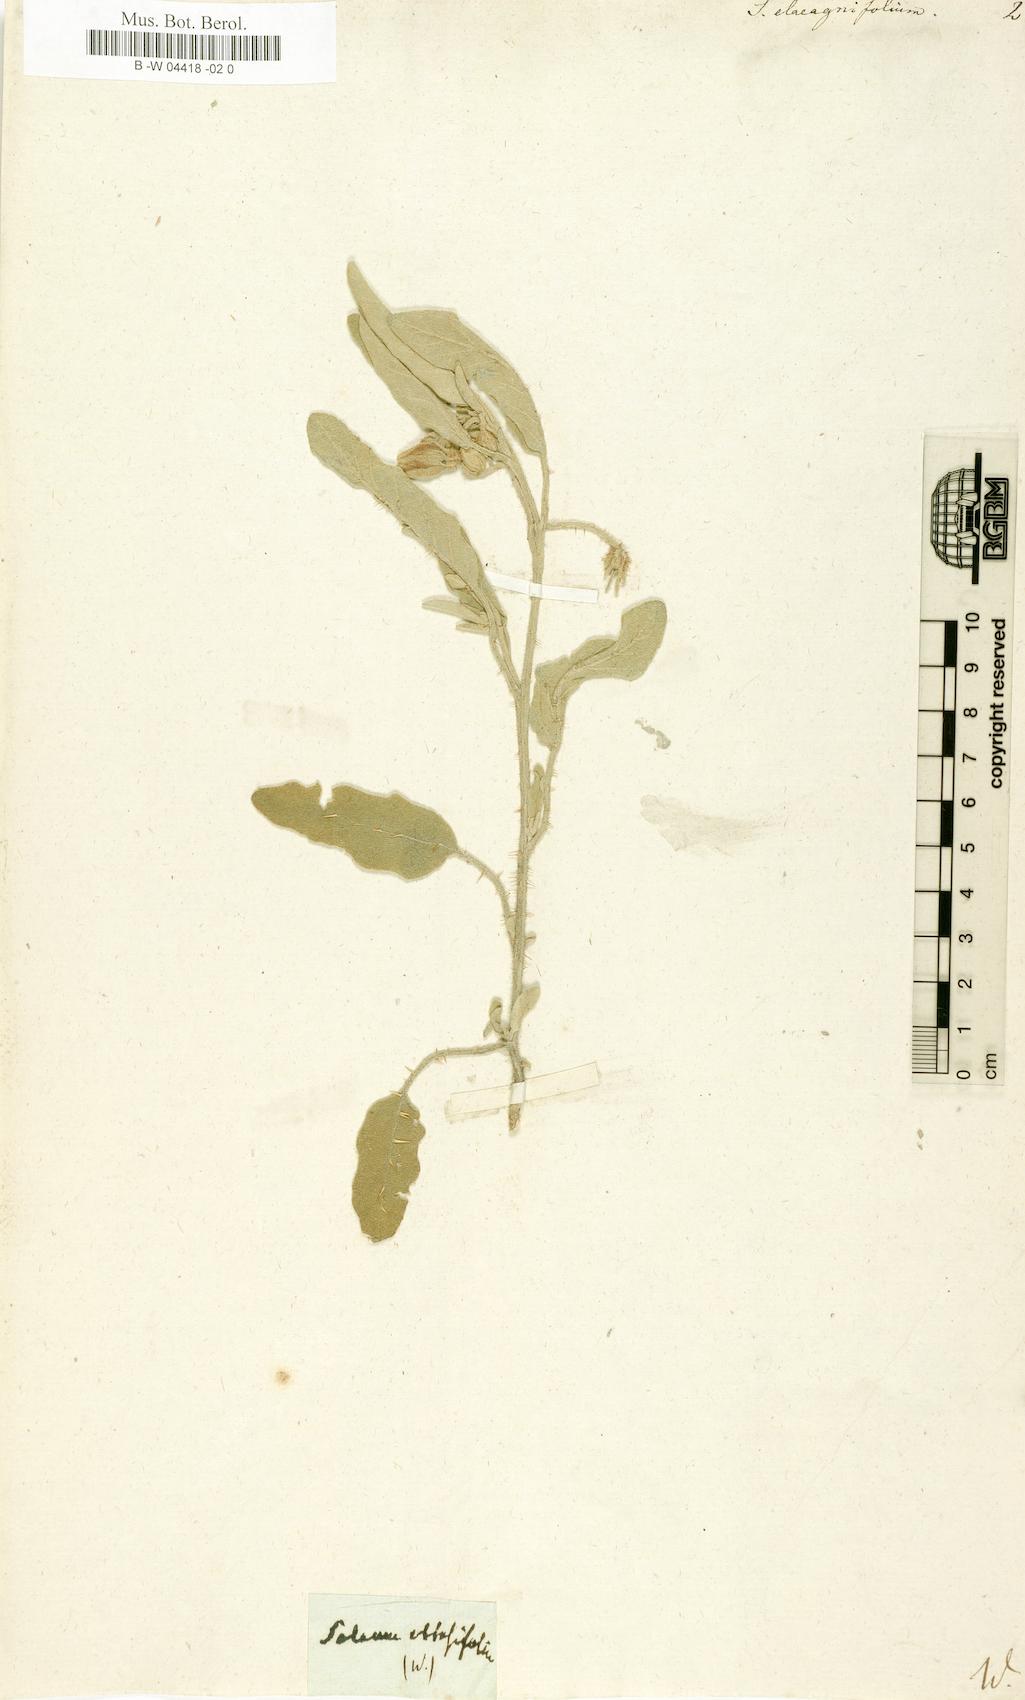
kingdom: Plantae
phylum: Tracheophyta
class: Magnoliopsida
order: Solanales
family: Solanaceae
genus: Solanum
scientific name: Solanum elaeagnifolium
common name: Silverleaf nightshade
